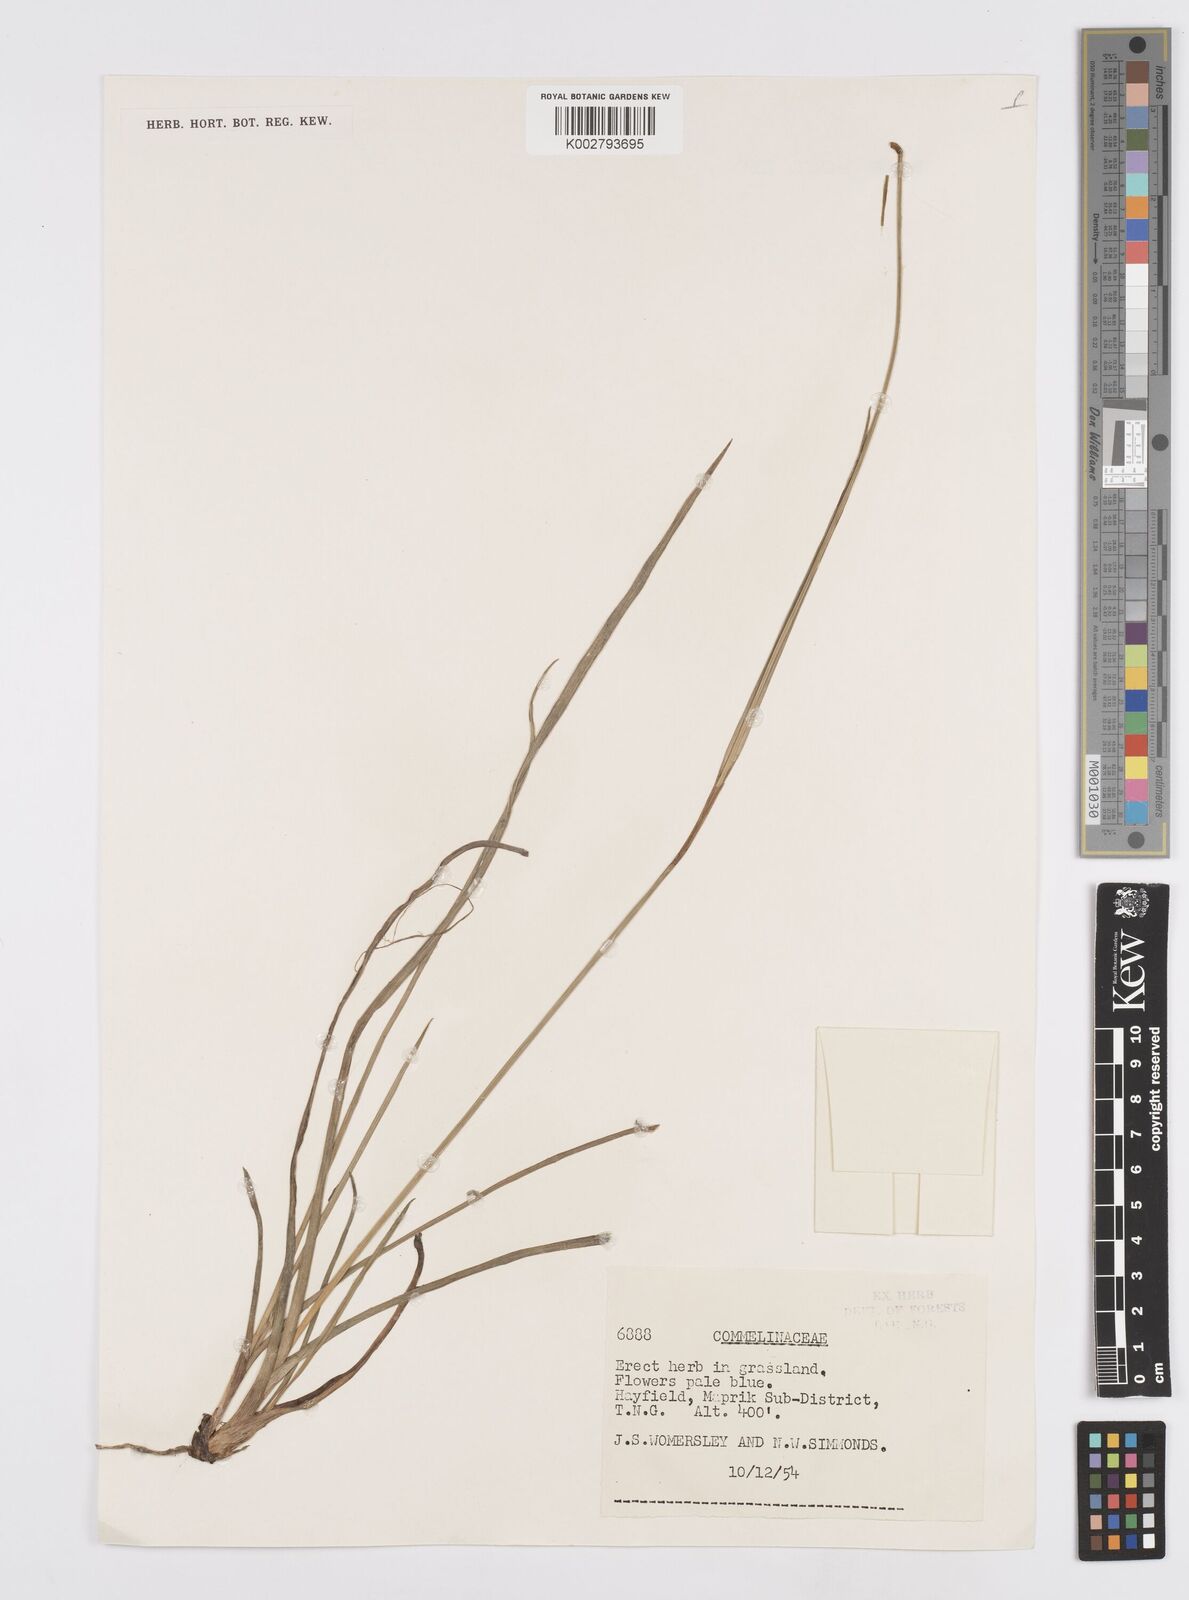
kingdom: Plantae
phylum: Tracheophyta
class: Liliopsida
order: Commelinales
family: Commelinaceae
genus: Murdannia
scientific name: Murdannia
